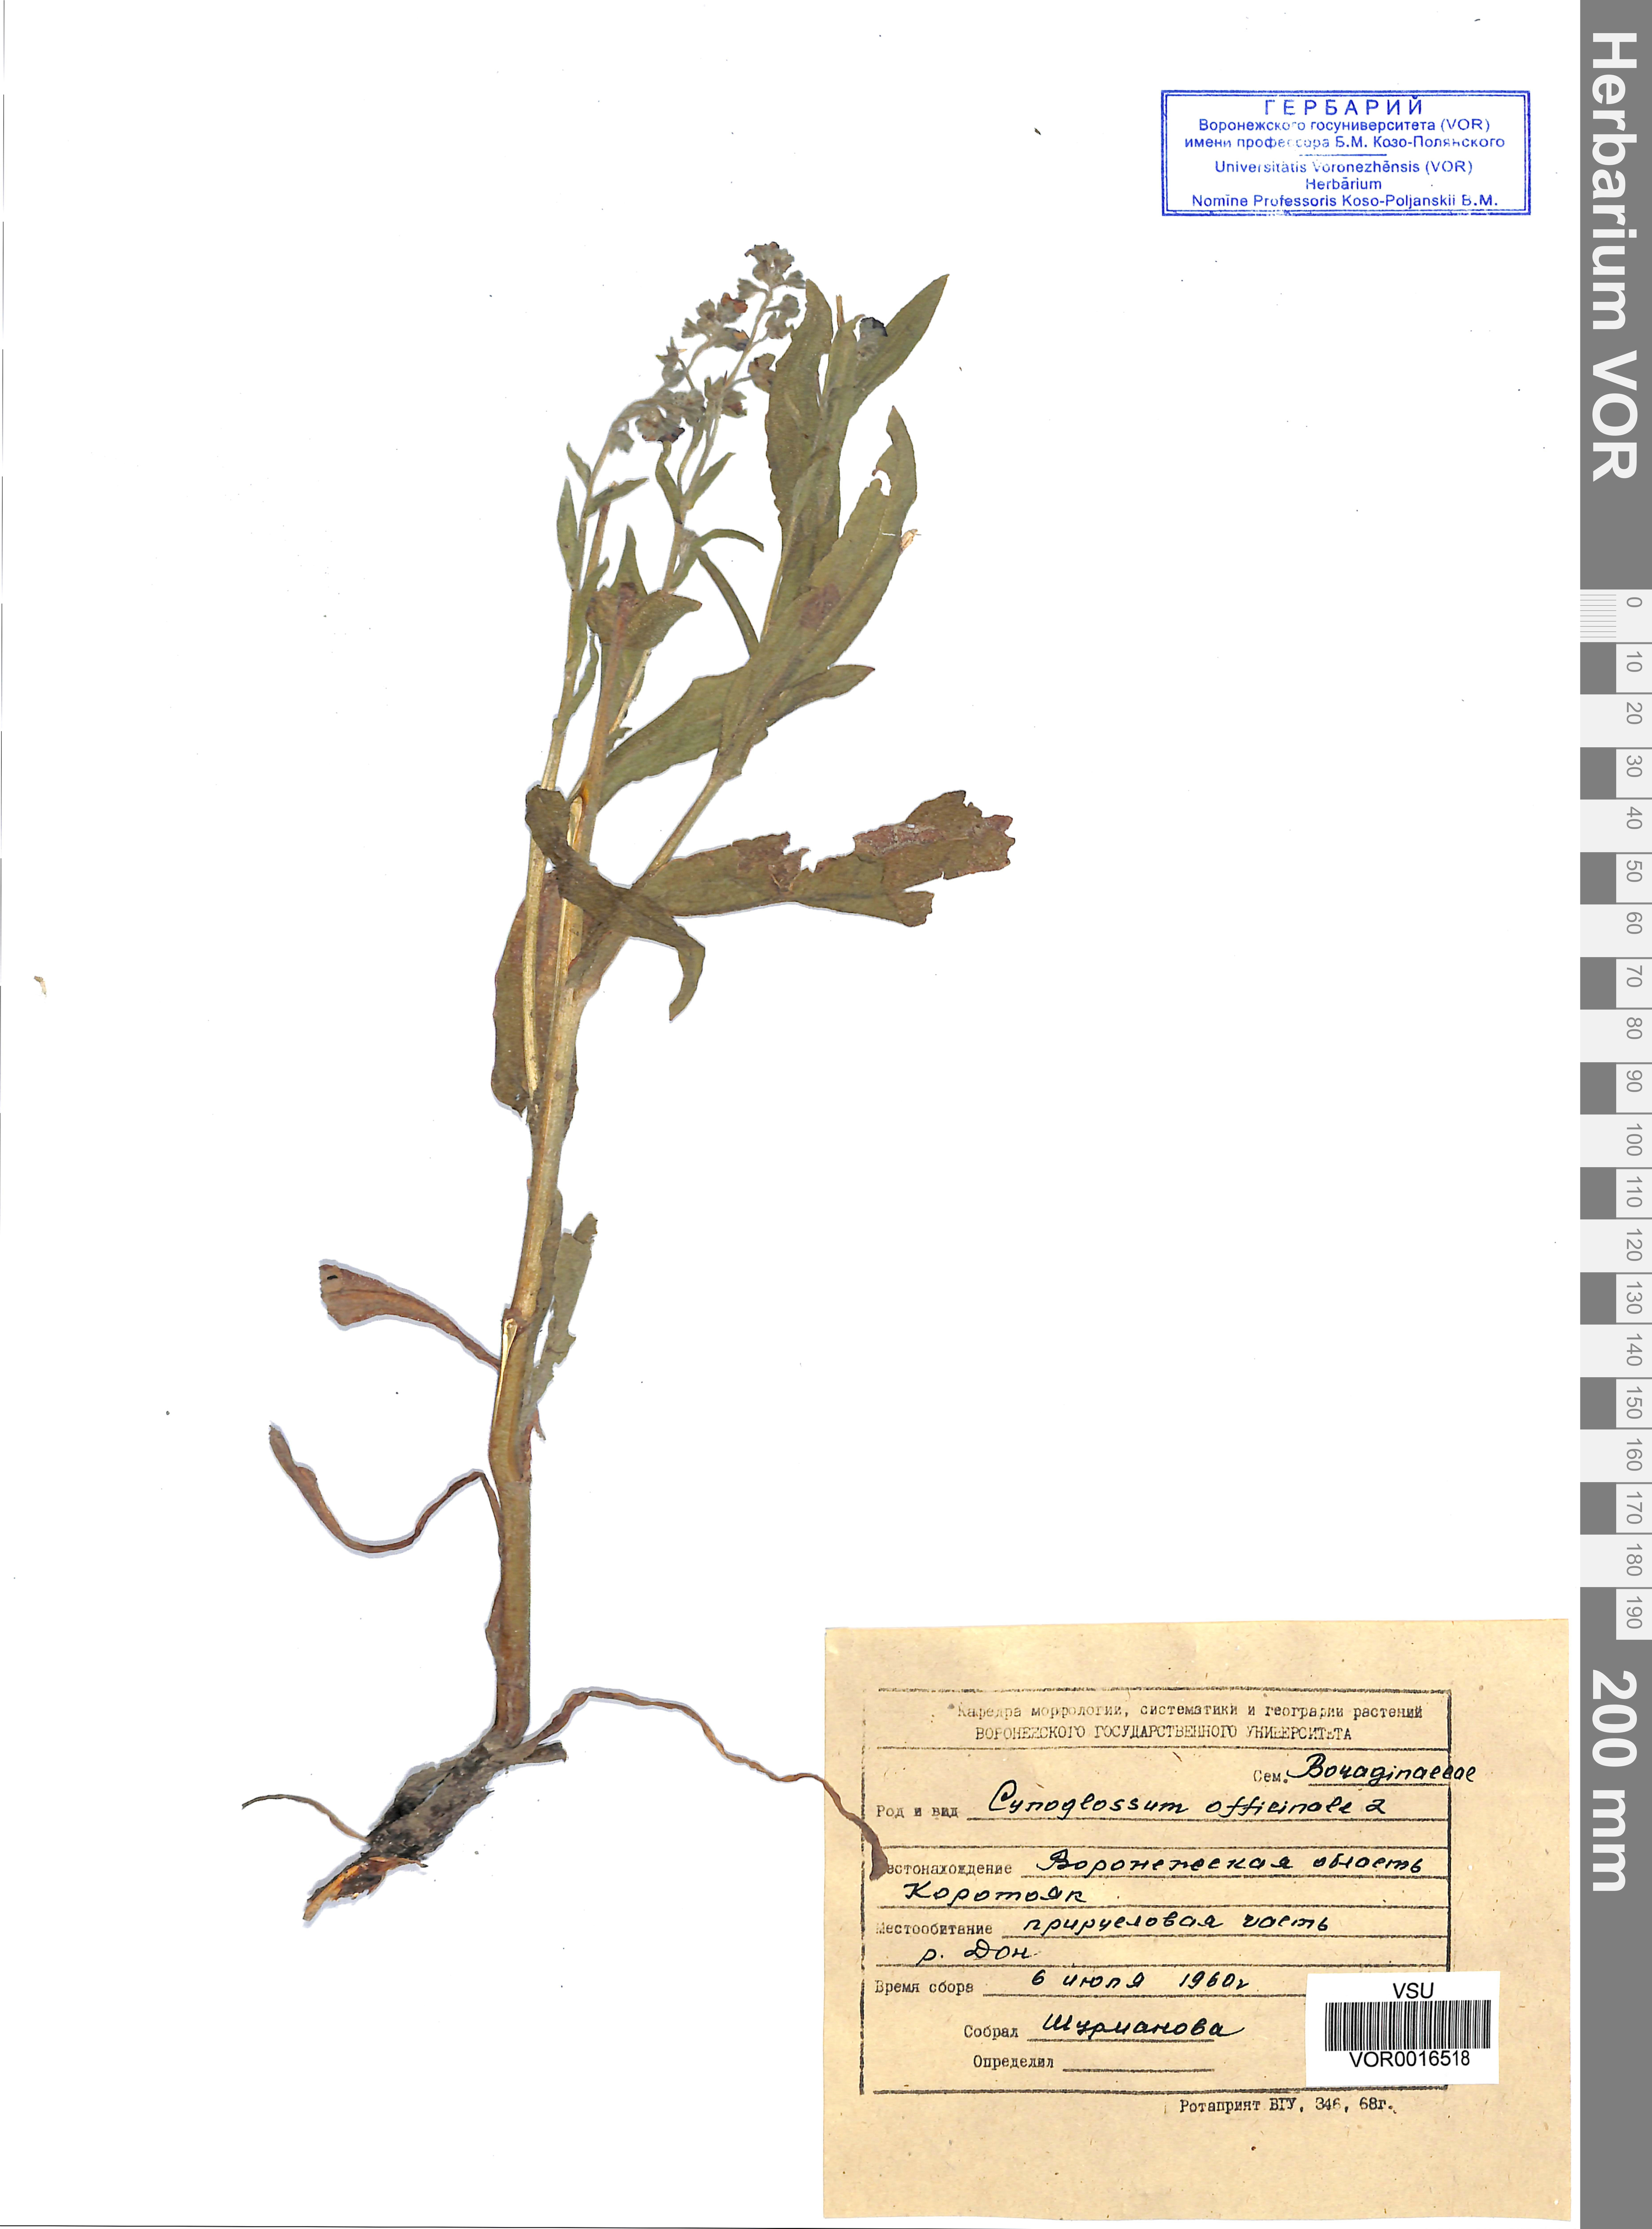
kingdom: Plantae
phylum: Tracheophyta
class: Magnoliopsida
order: Boraginales
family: Boraginaceae
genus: Cynoglossum
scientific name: Cynoglossum officinale
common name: Hound's-tongue
